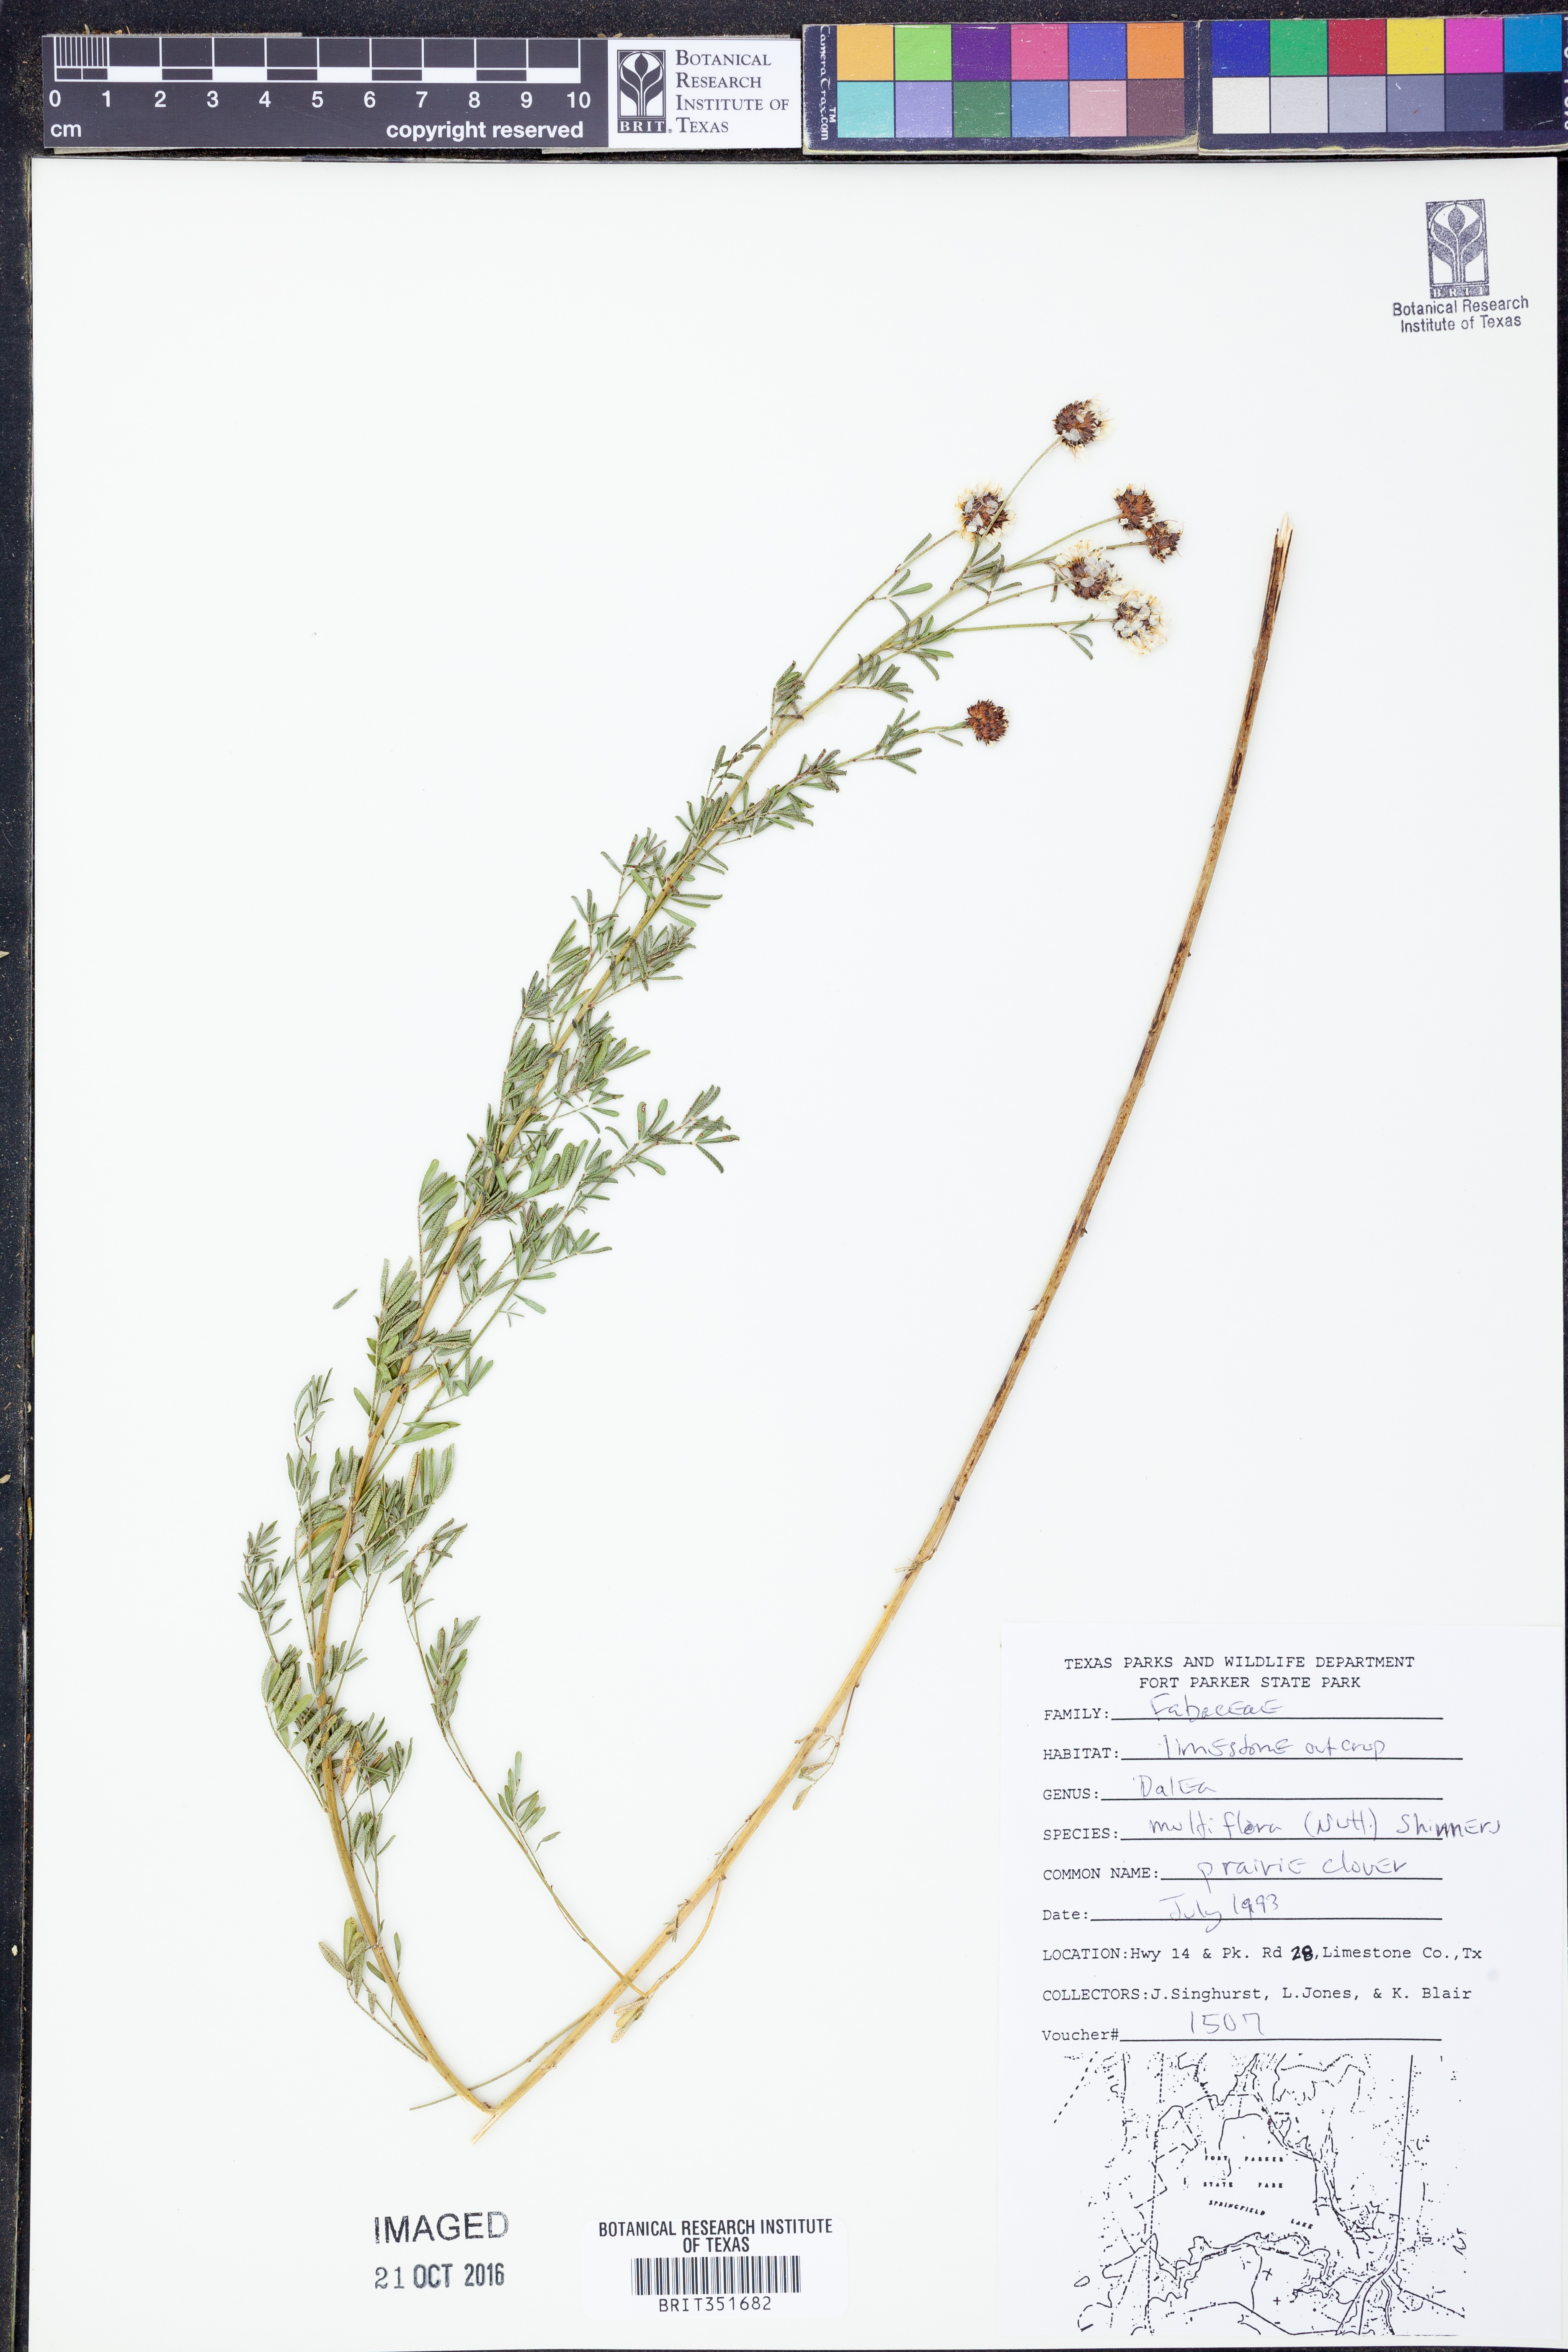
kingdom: Plantae
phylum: Tracheophyta
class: Magnoliopsida
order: Fabales
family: Fabaceae
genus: Dalea
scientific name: Dalea multiflora
